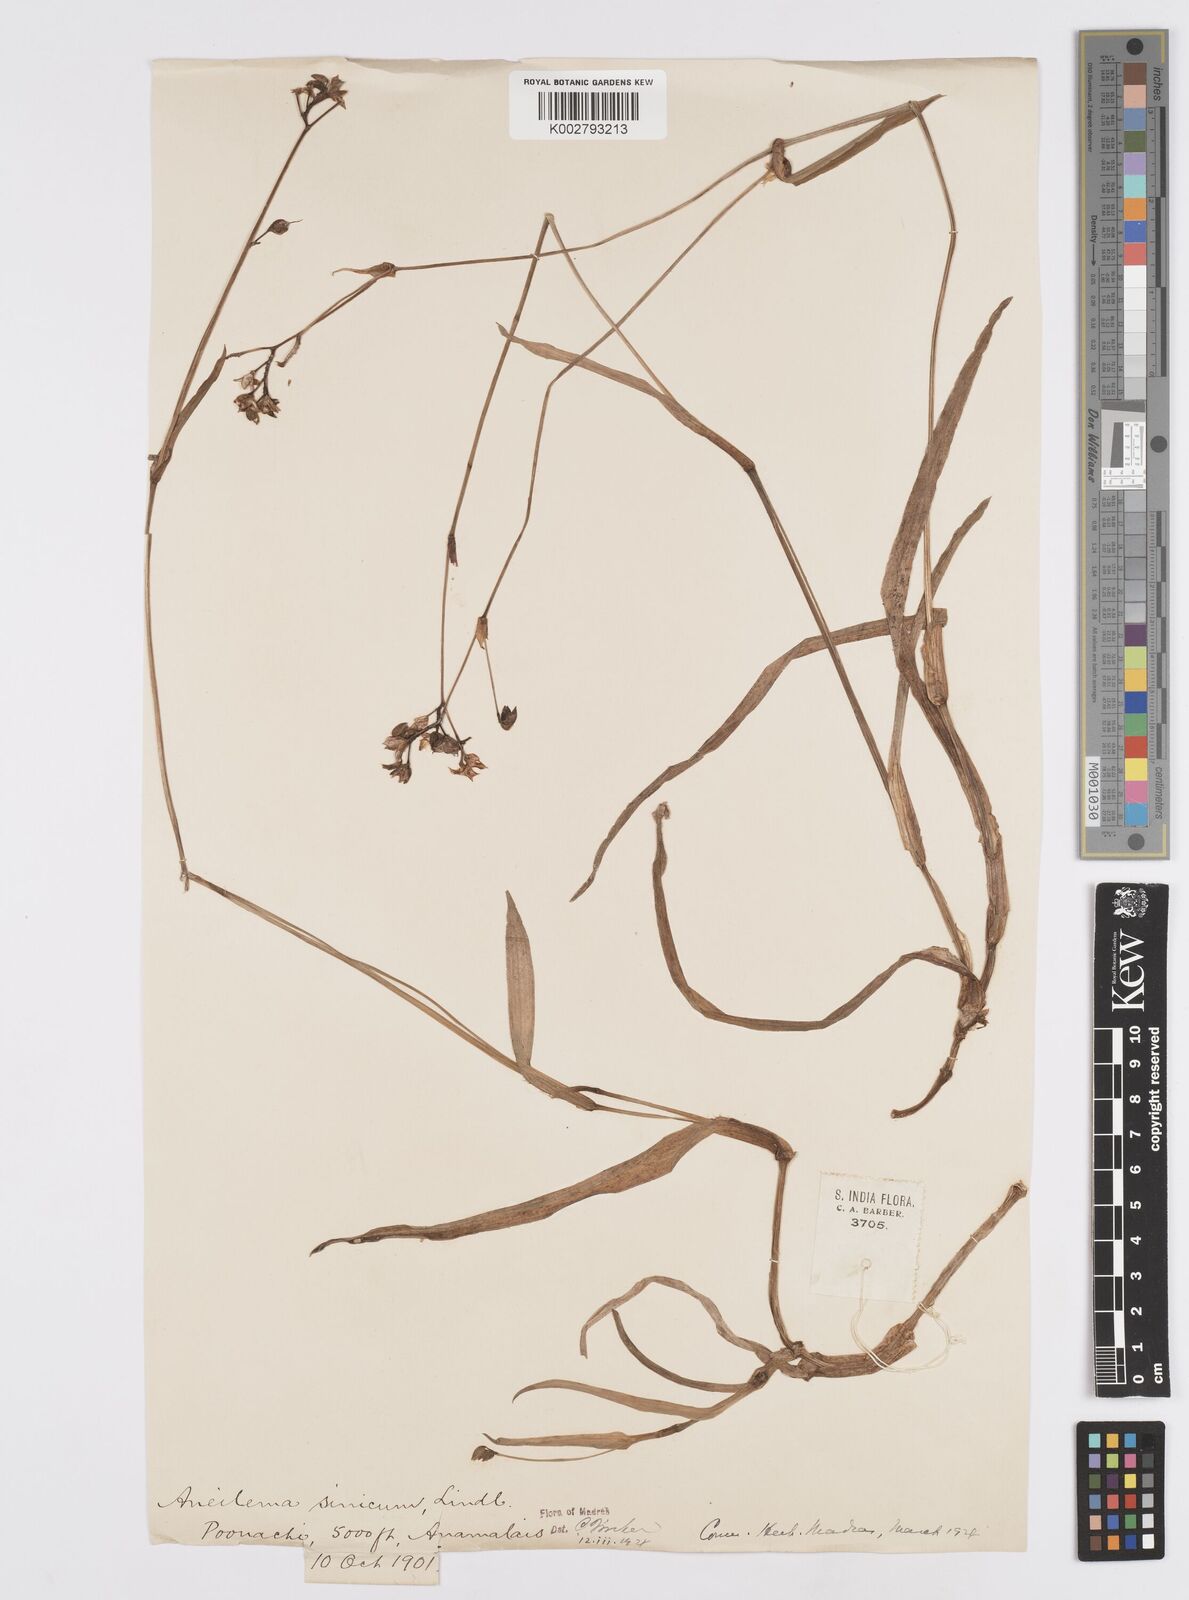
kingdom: Plantae
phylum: Tracheophyta
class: Liliopsida
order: Commelinales
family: Commelinaceae
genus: Murdannia
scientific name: Murdannia simplex
